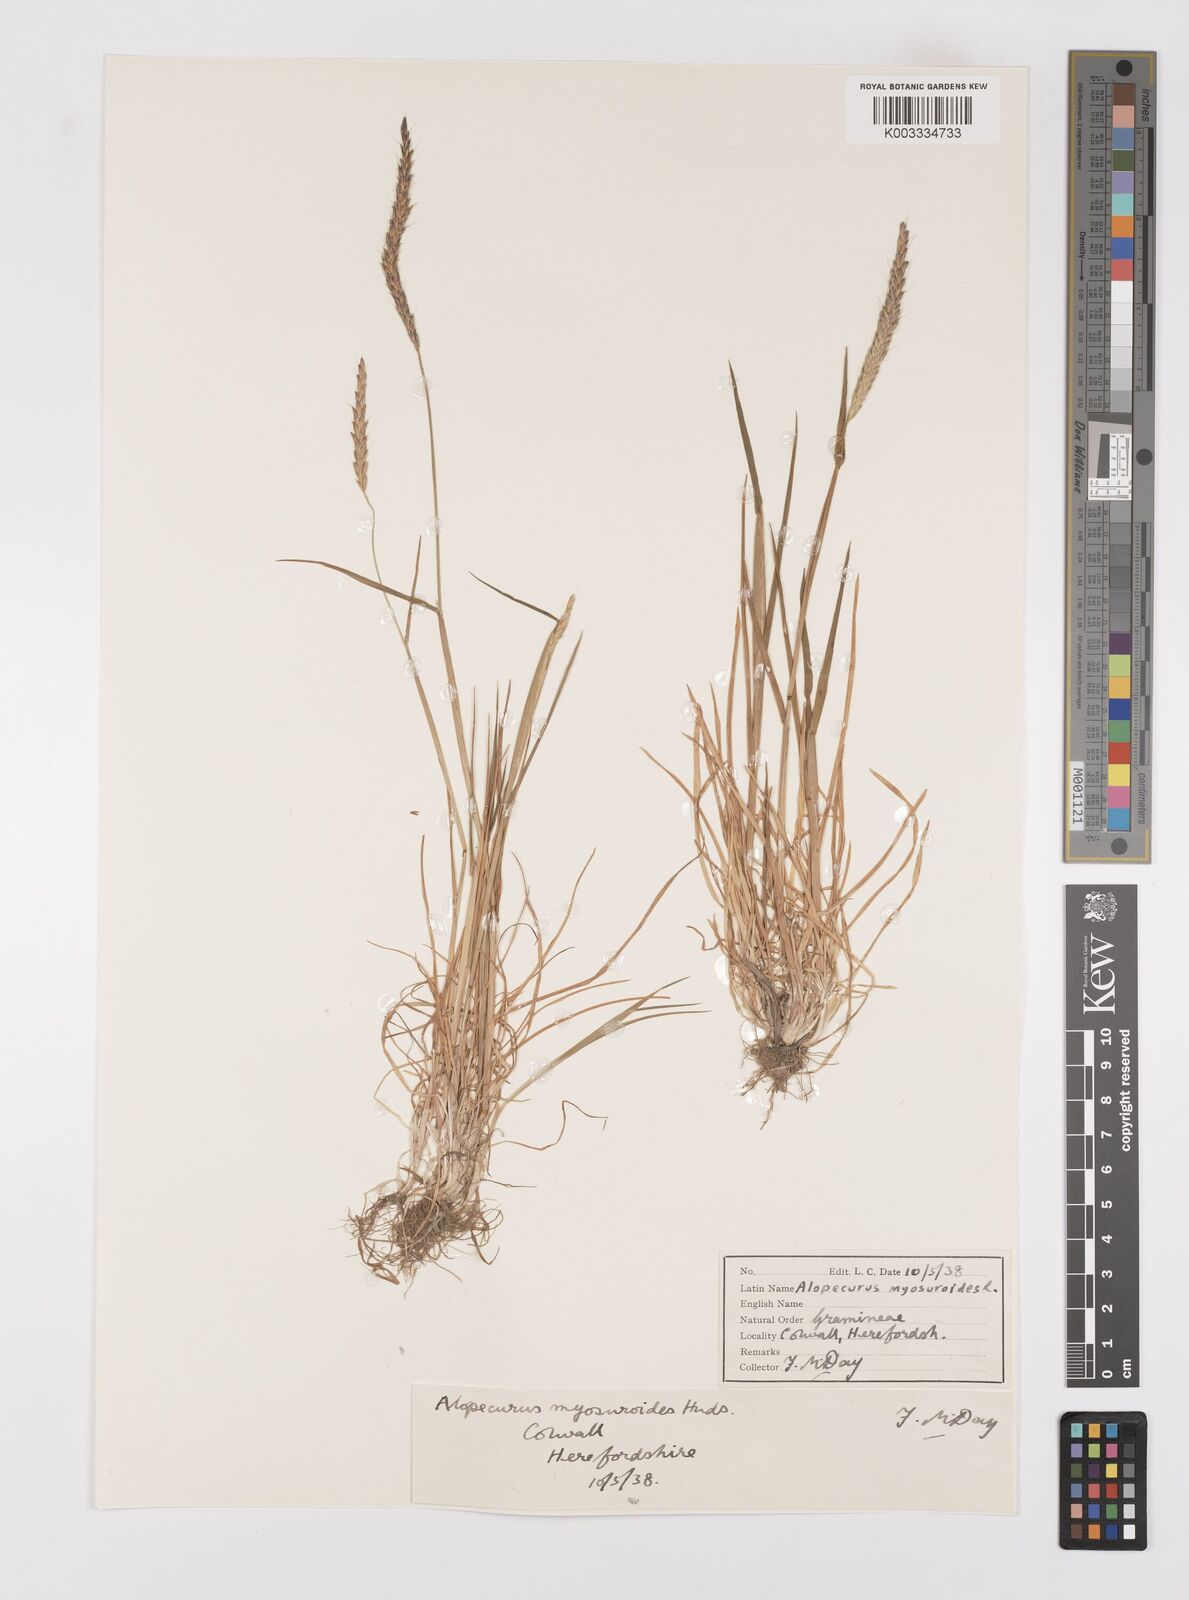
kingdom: Plantae
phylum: Tracheophyta
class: Liliopsida
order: Poales
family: Poaceae
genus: Alopecurus
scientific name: Alopecurus myosuroides
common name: Black-grass
